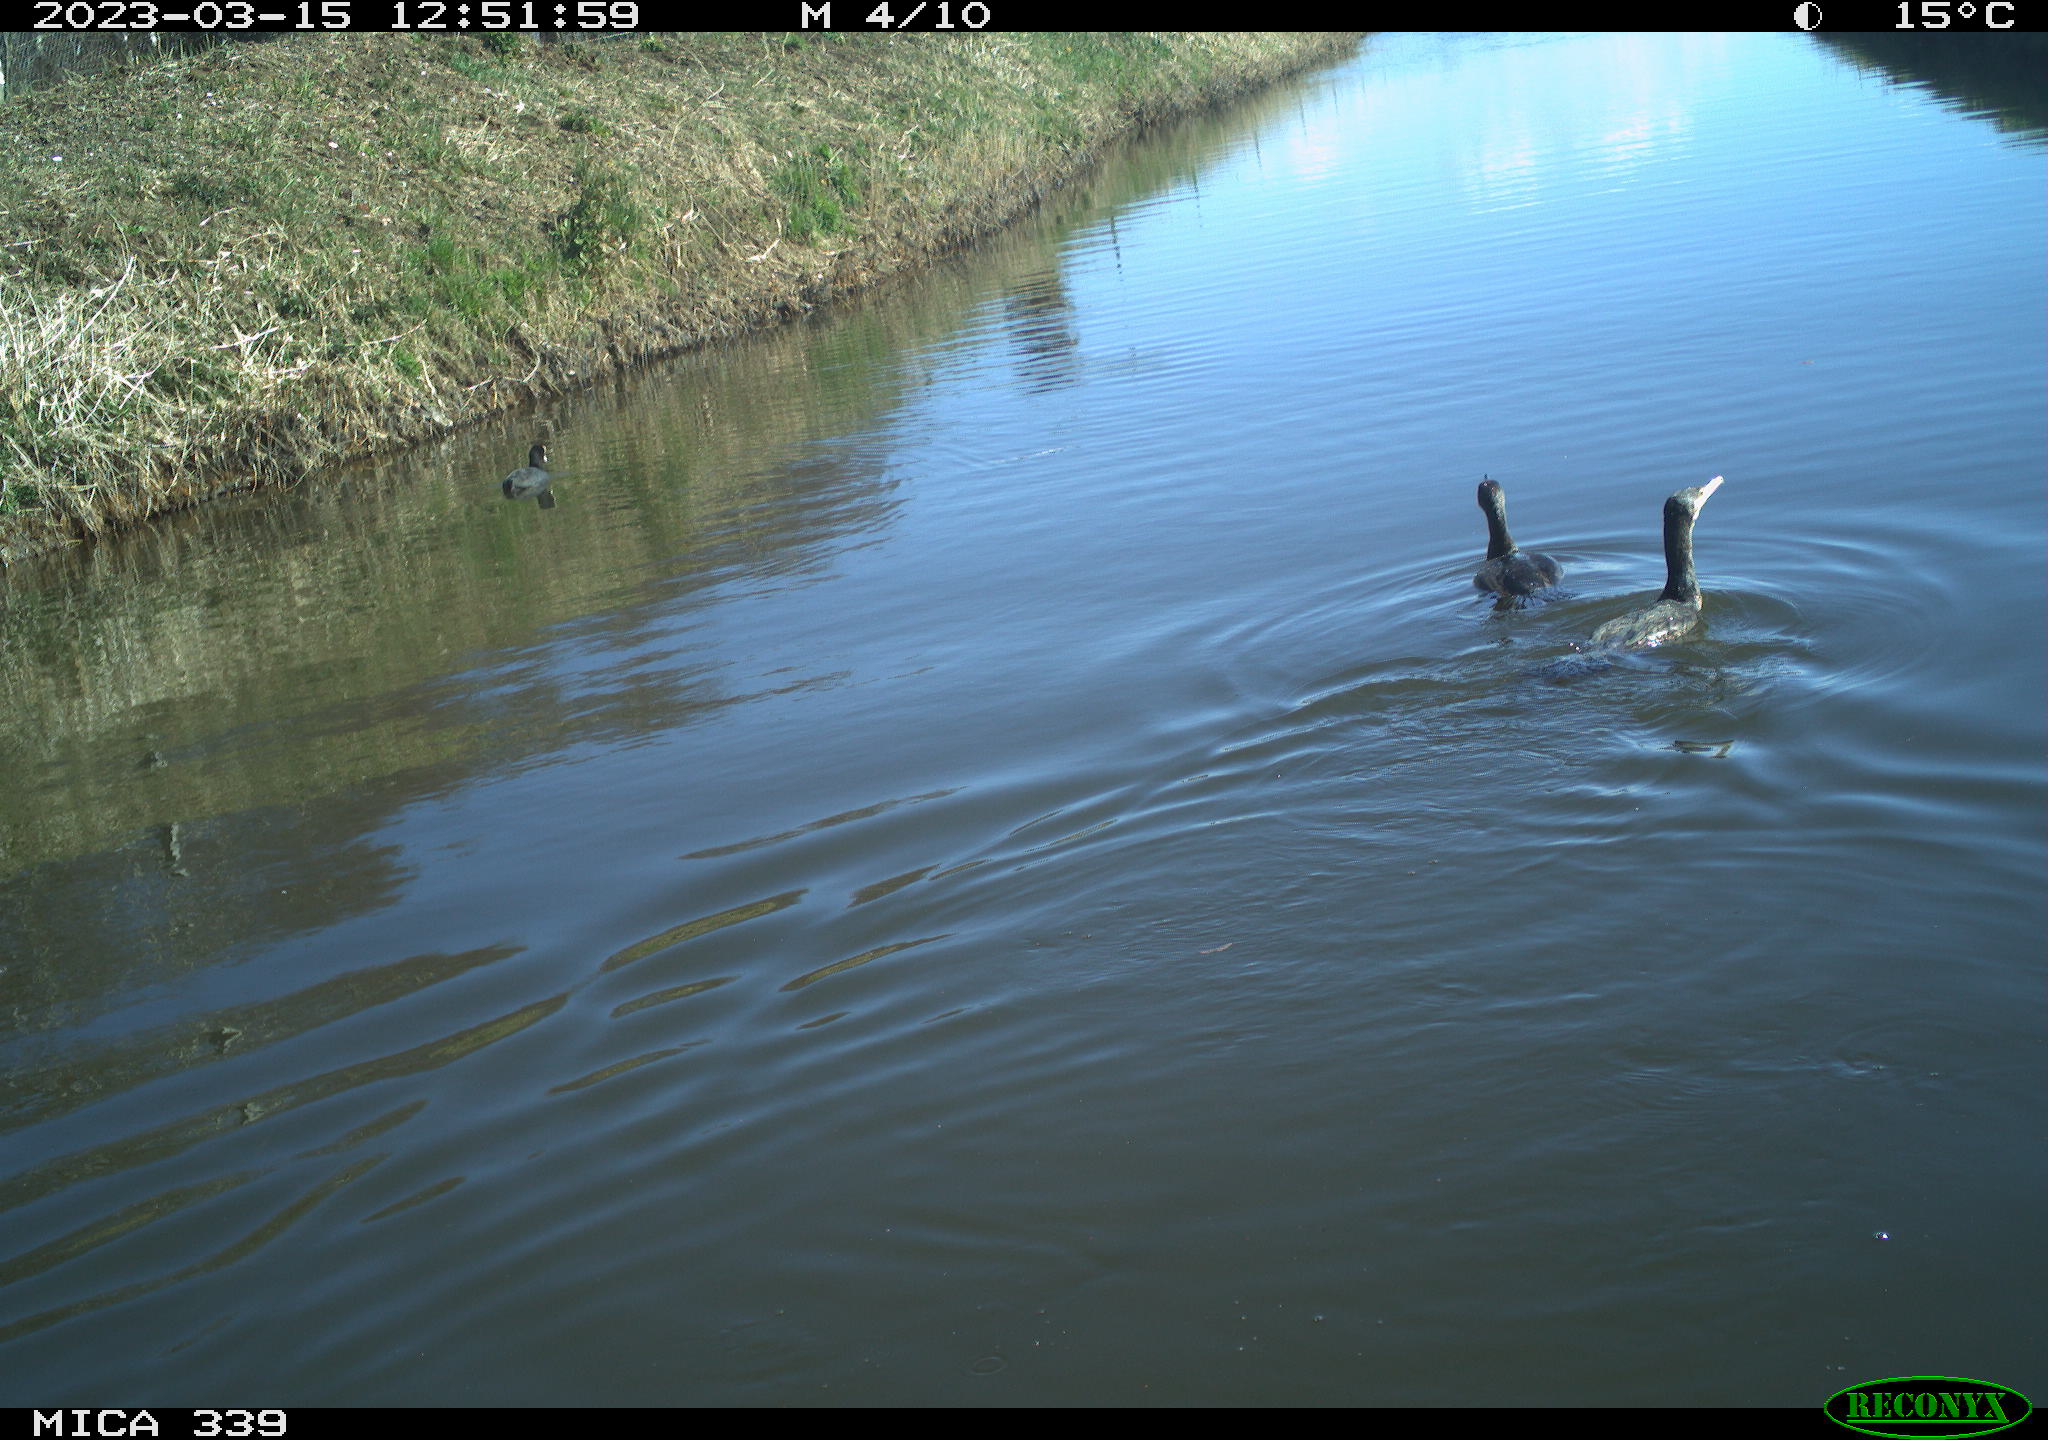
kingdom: Animalia
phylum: Chordata
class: Aves
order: Gruiformes
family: Rallidae
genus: Fulica
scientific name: Fulica atra
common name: Eurasian coot
